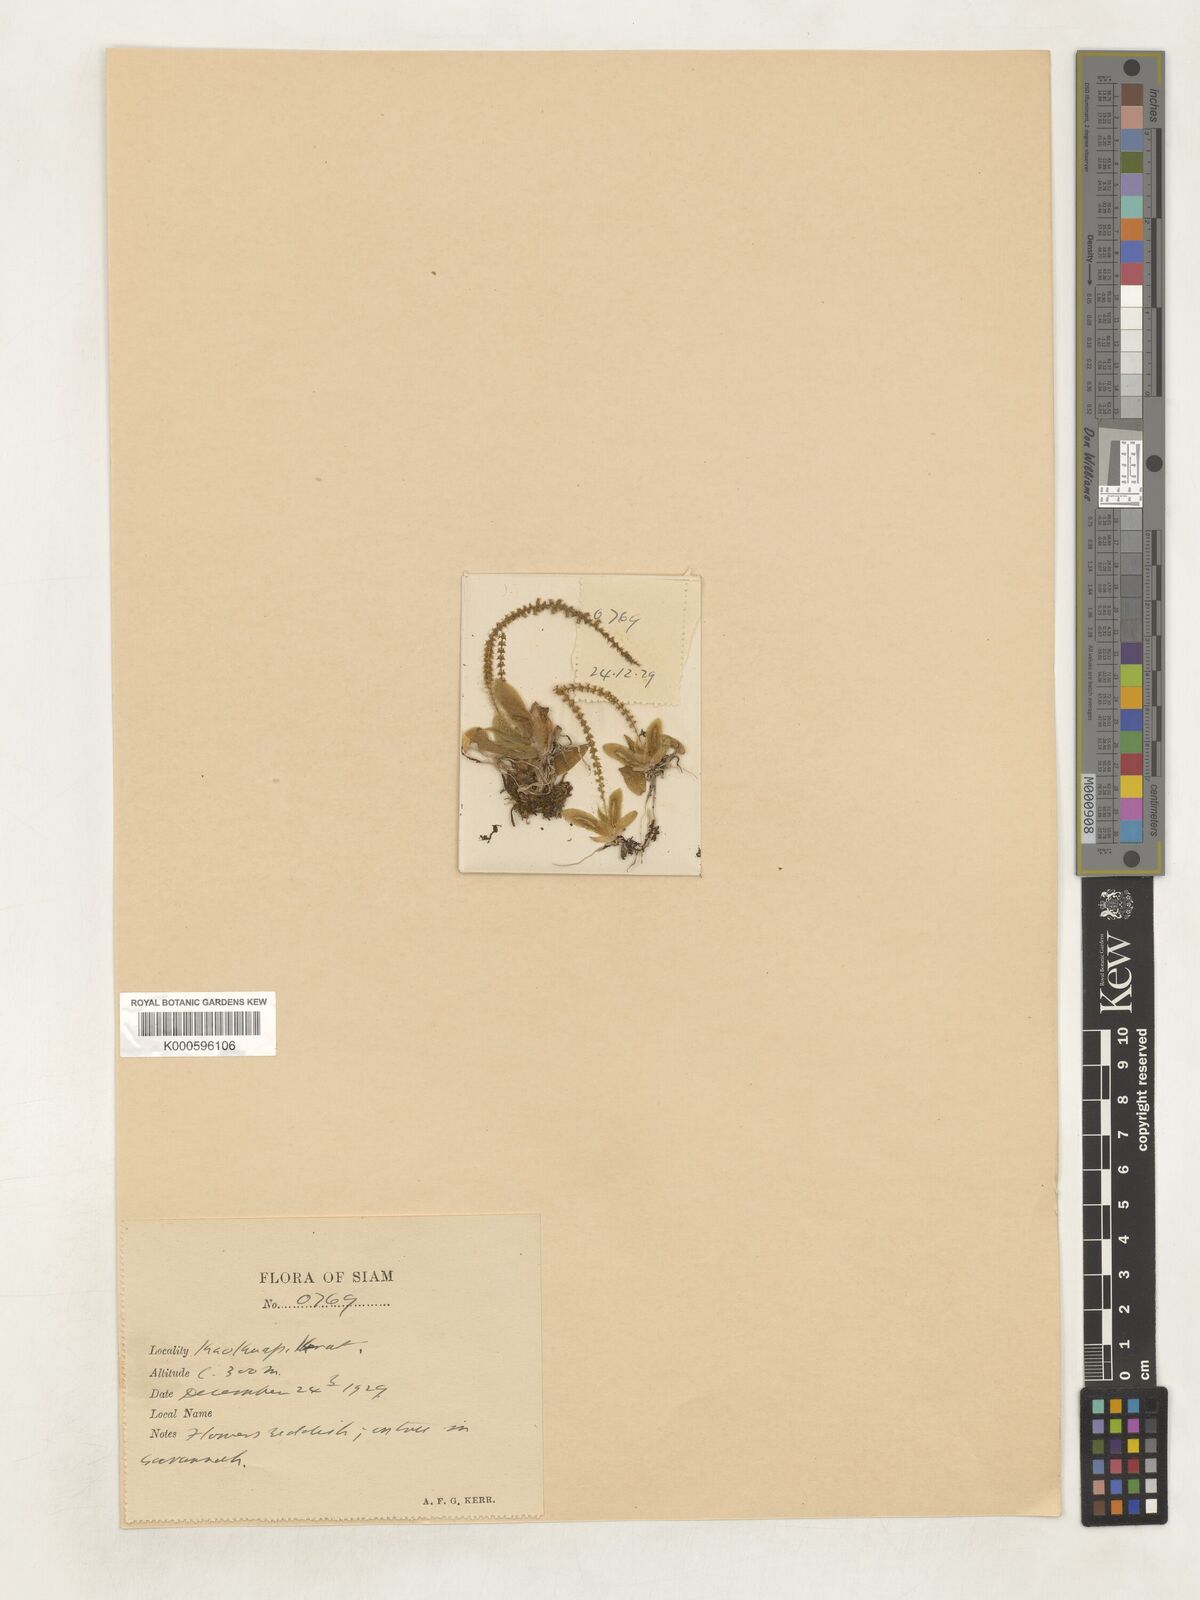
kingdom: Plantae
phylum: Tracheophyta
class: Liliopsida
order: Asparagales
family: Orchidaceae
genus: Oberonia
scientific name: Oberonia rufilabris
